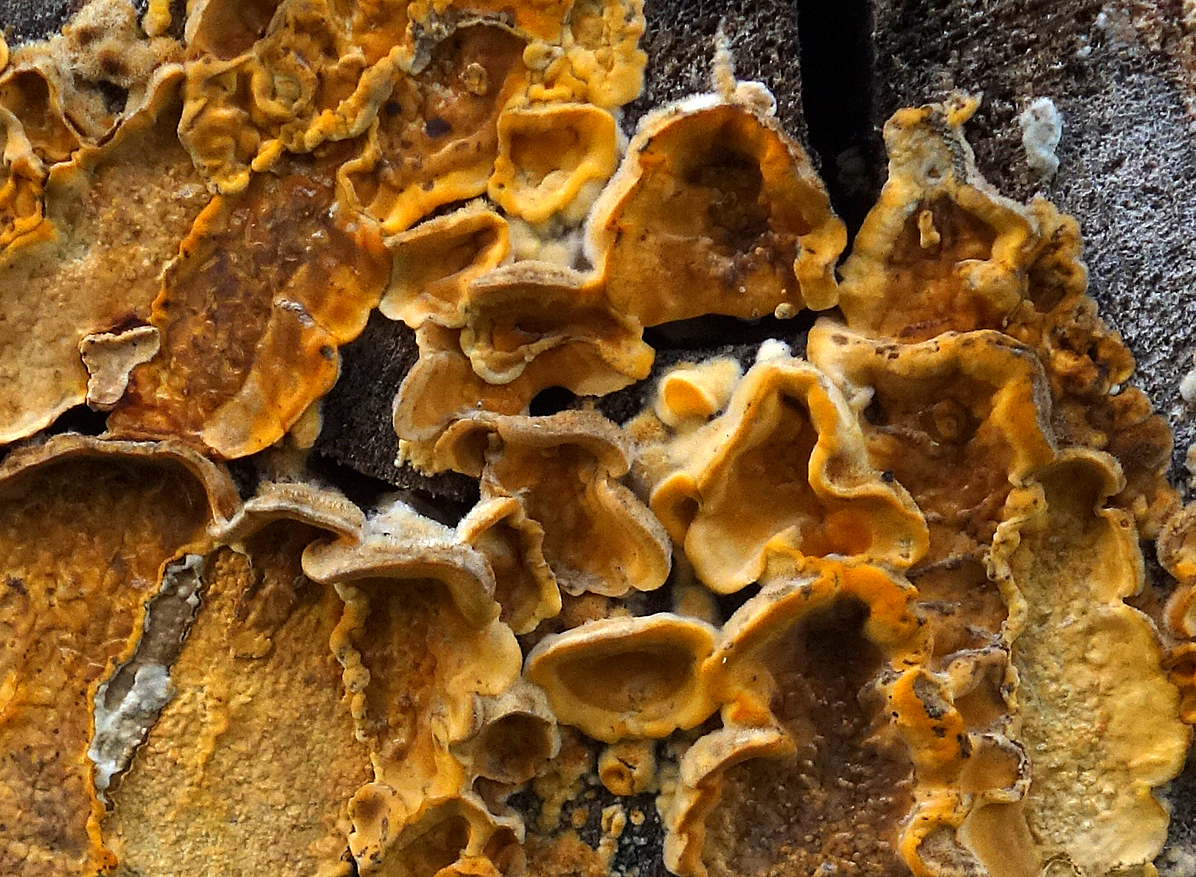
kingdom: Fungi
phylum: Basidiomycota
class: Agaricomycetes
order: Russulales
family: Stereaceae
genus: Stereum
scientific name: Stereum hirsutum
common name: håret lædersvamp
